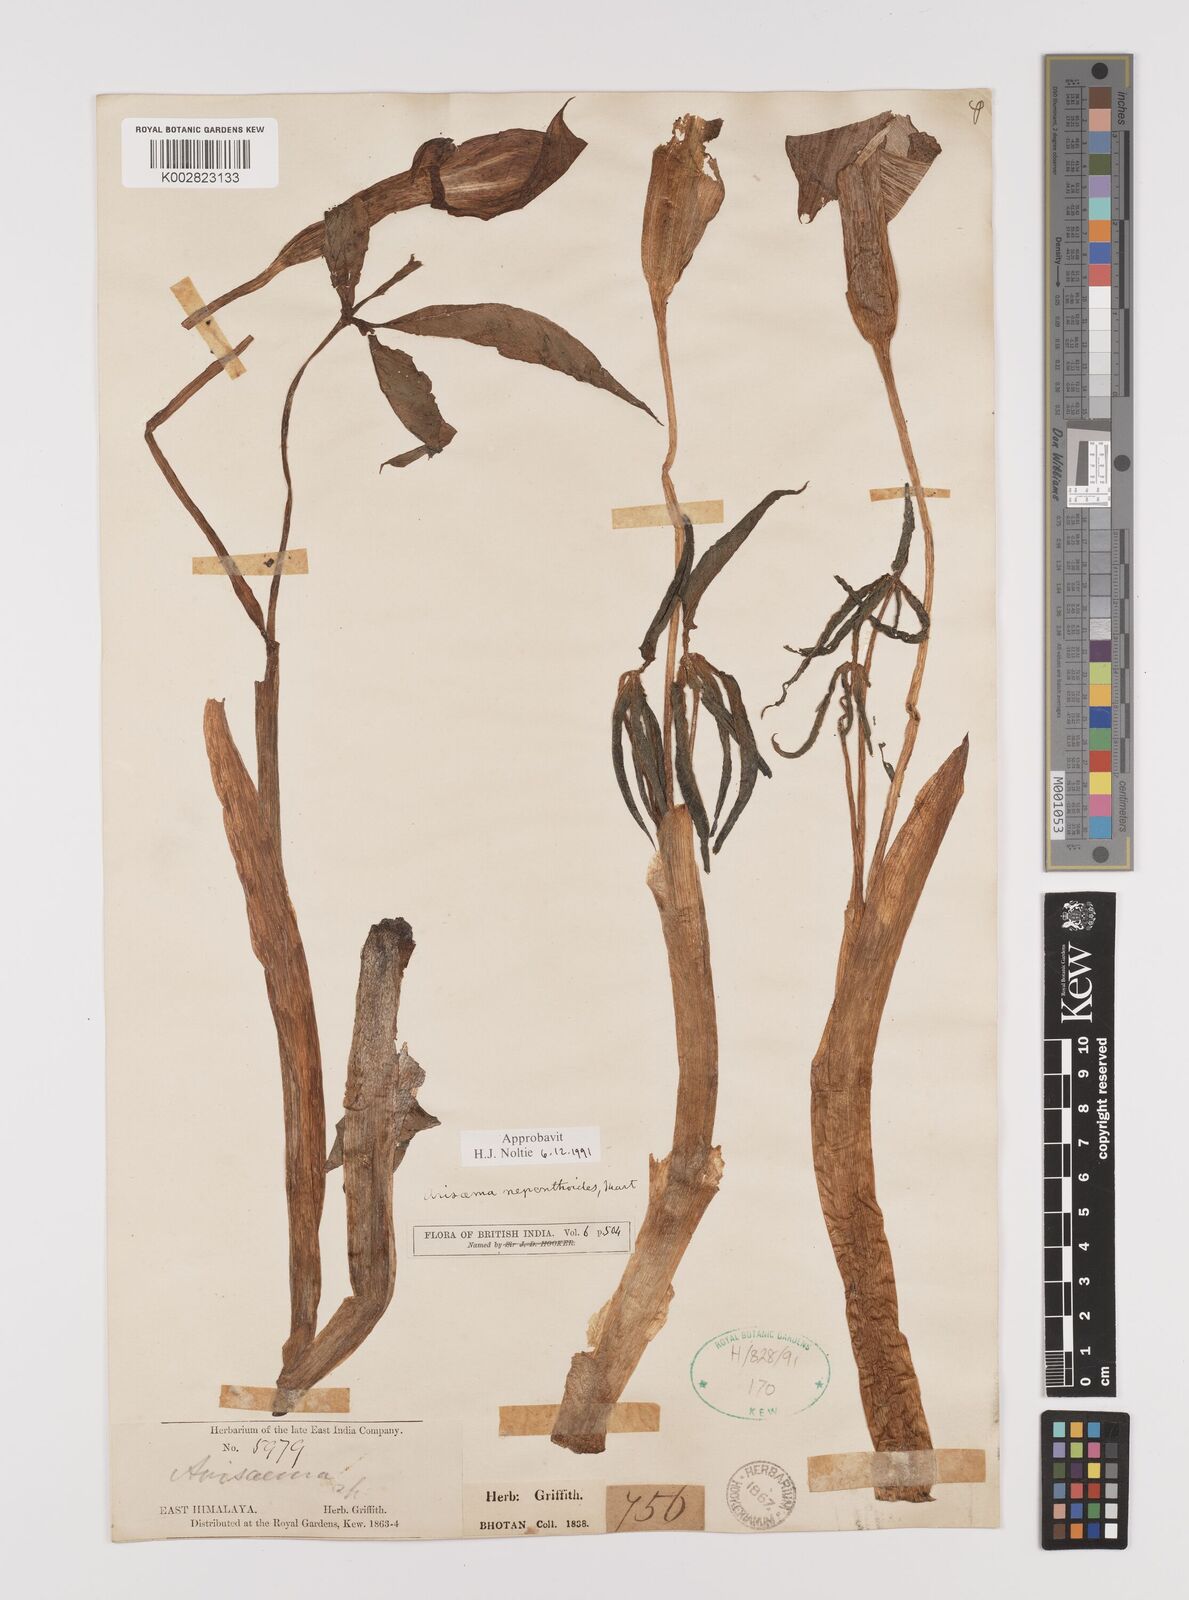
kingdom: Plantae
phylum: Tracheophyta
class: Liliopsida
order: Alismatales
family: Araceae
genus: Arisaema
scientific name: Arisaema nepenthoides
